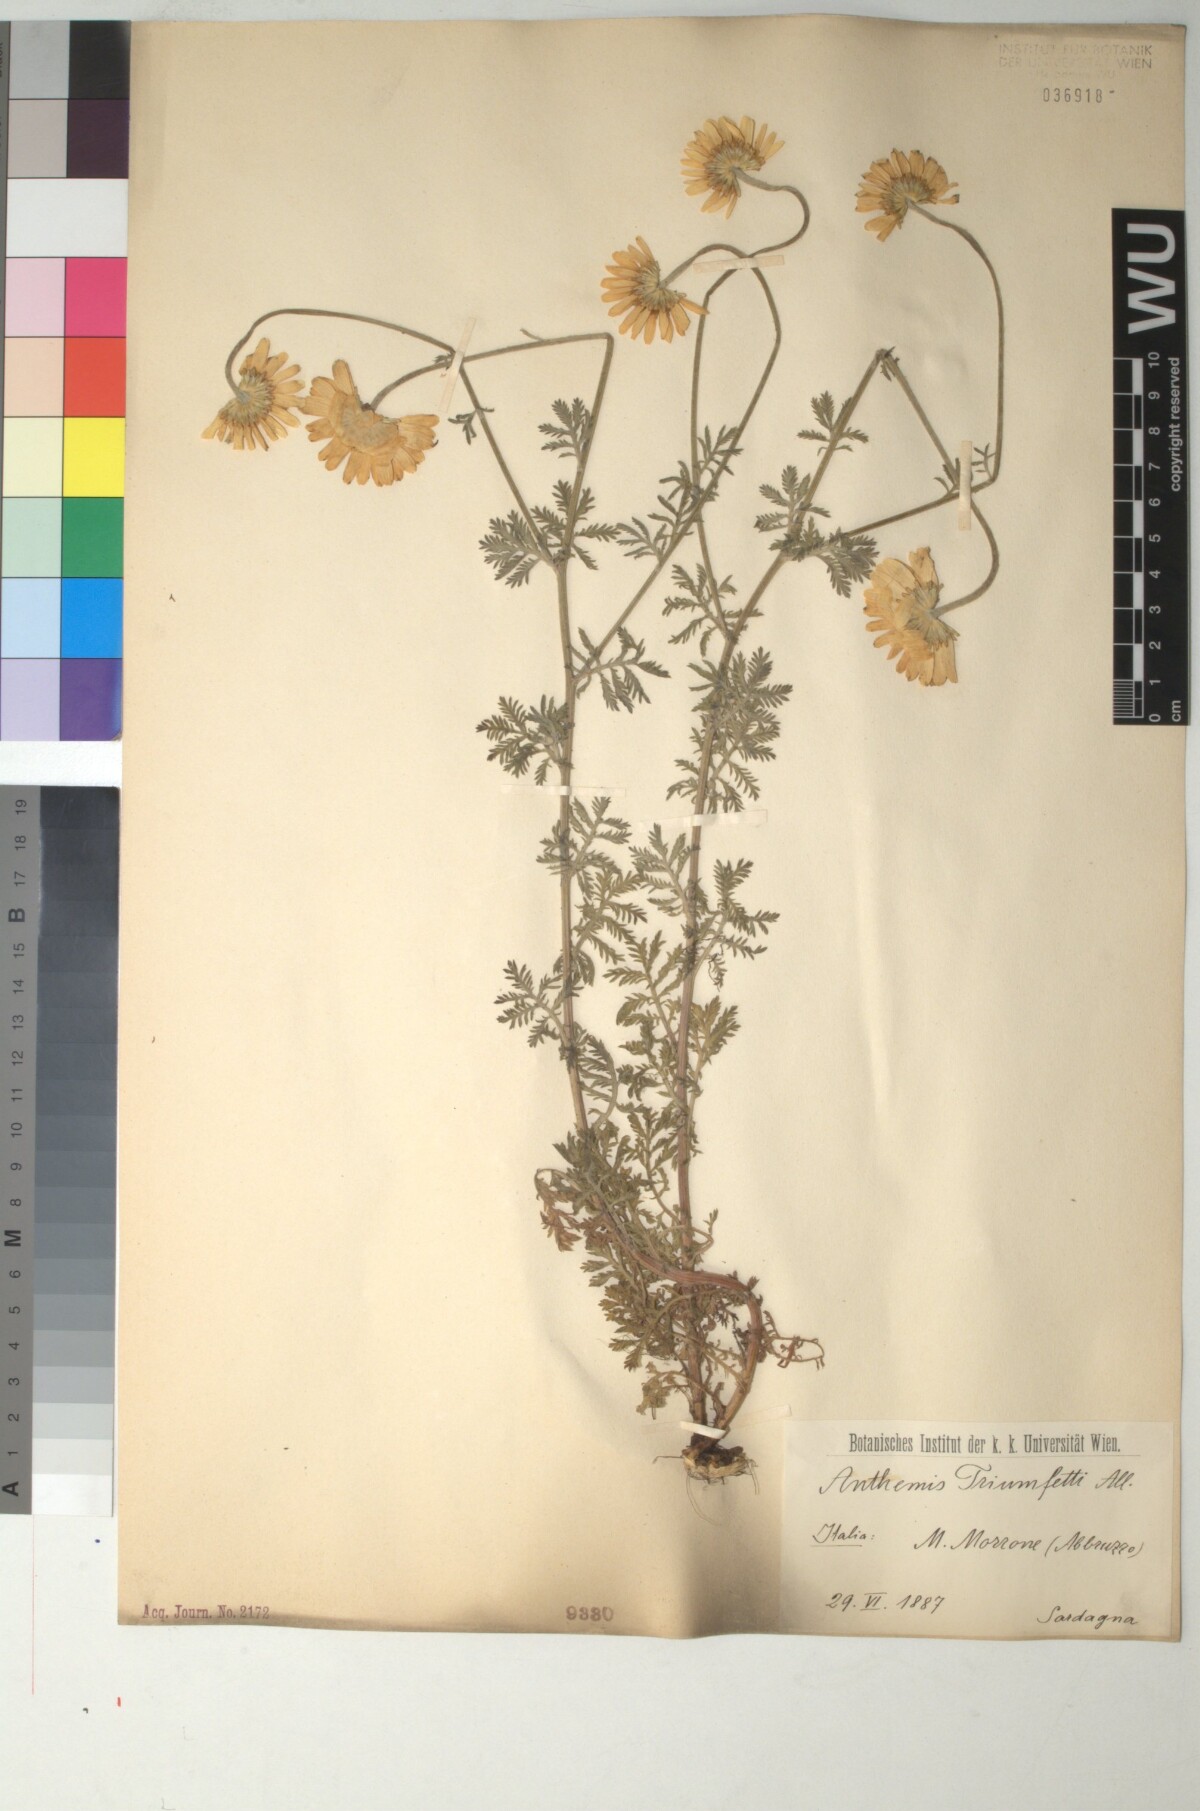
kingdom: Plantae
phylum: Tracheophyta
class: Magnoliopsida
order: Asterales
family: Asteraceae
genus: Cota
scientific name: Cota triumfetti
